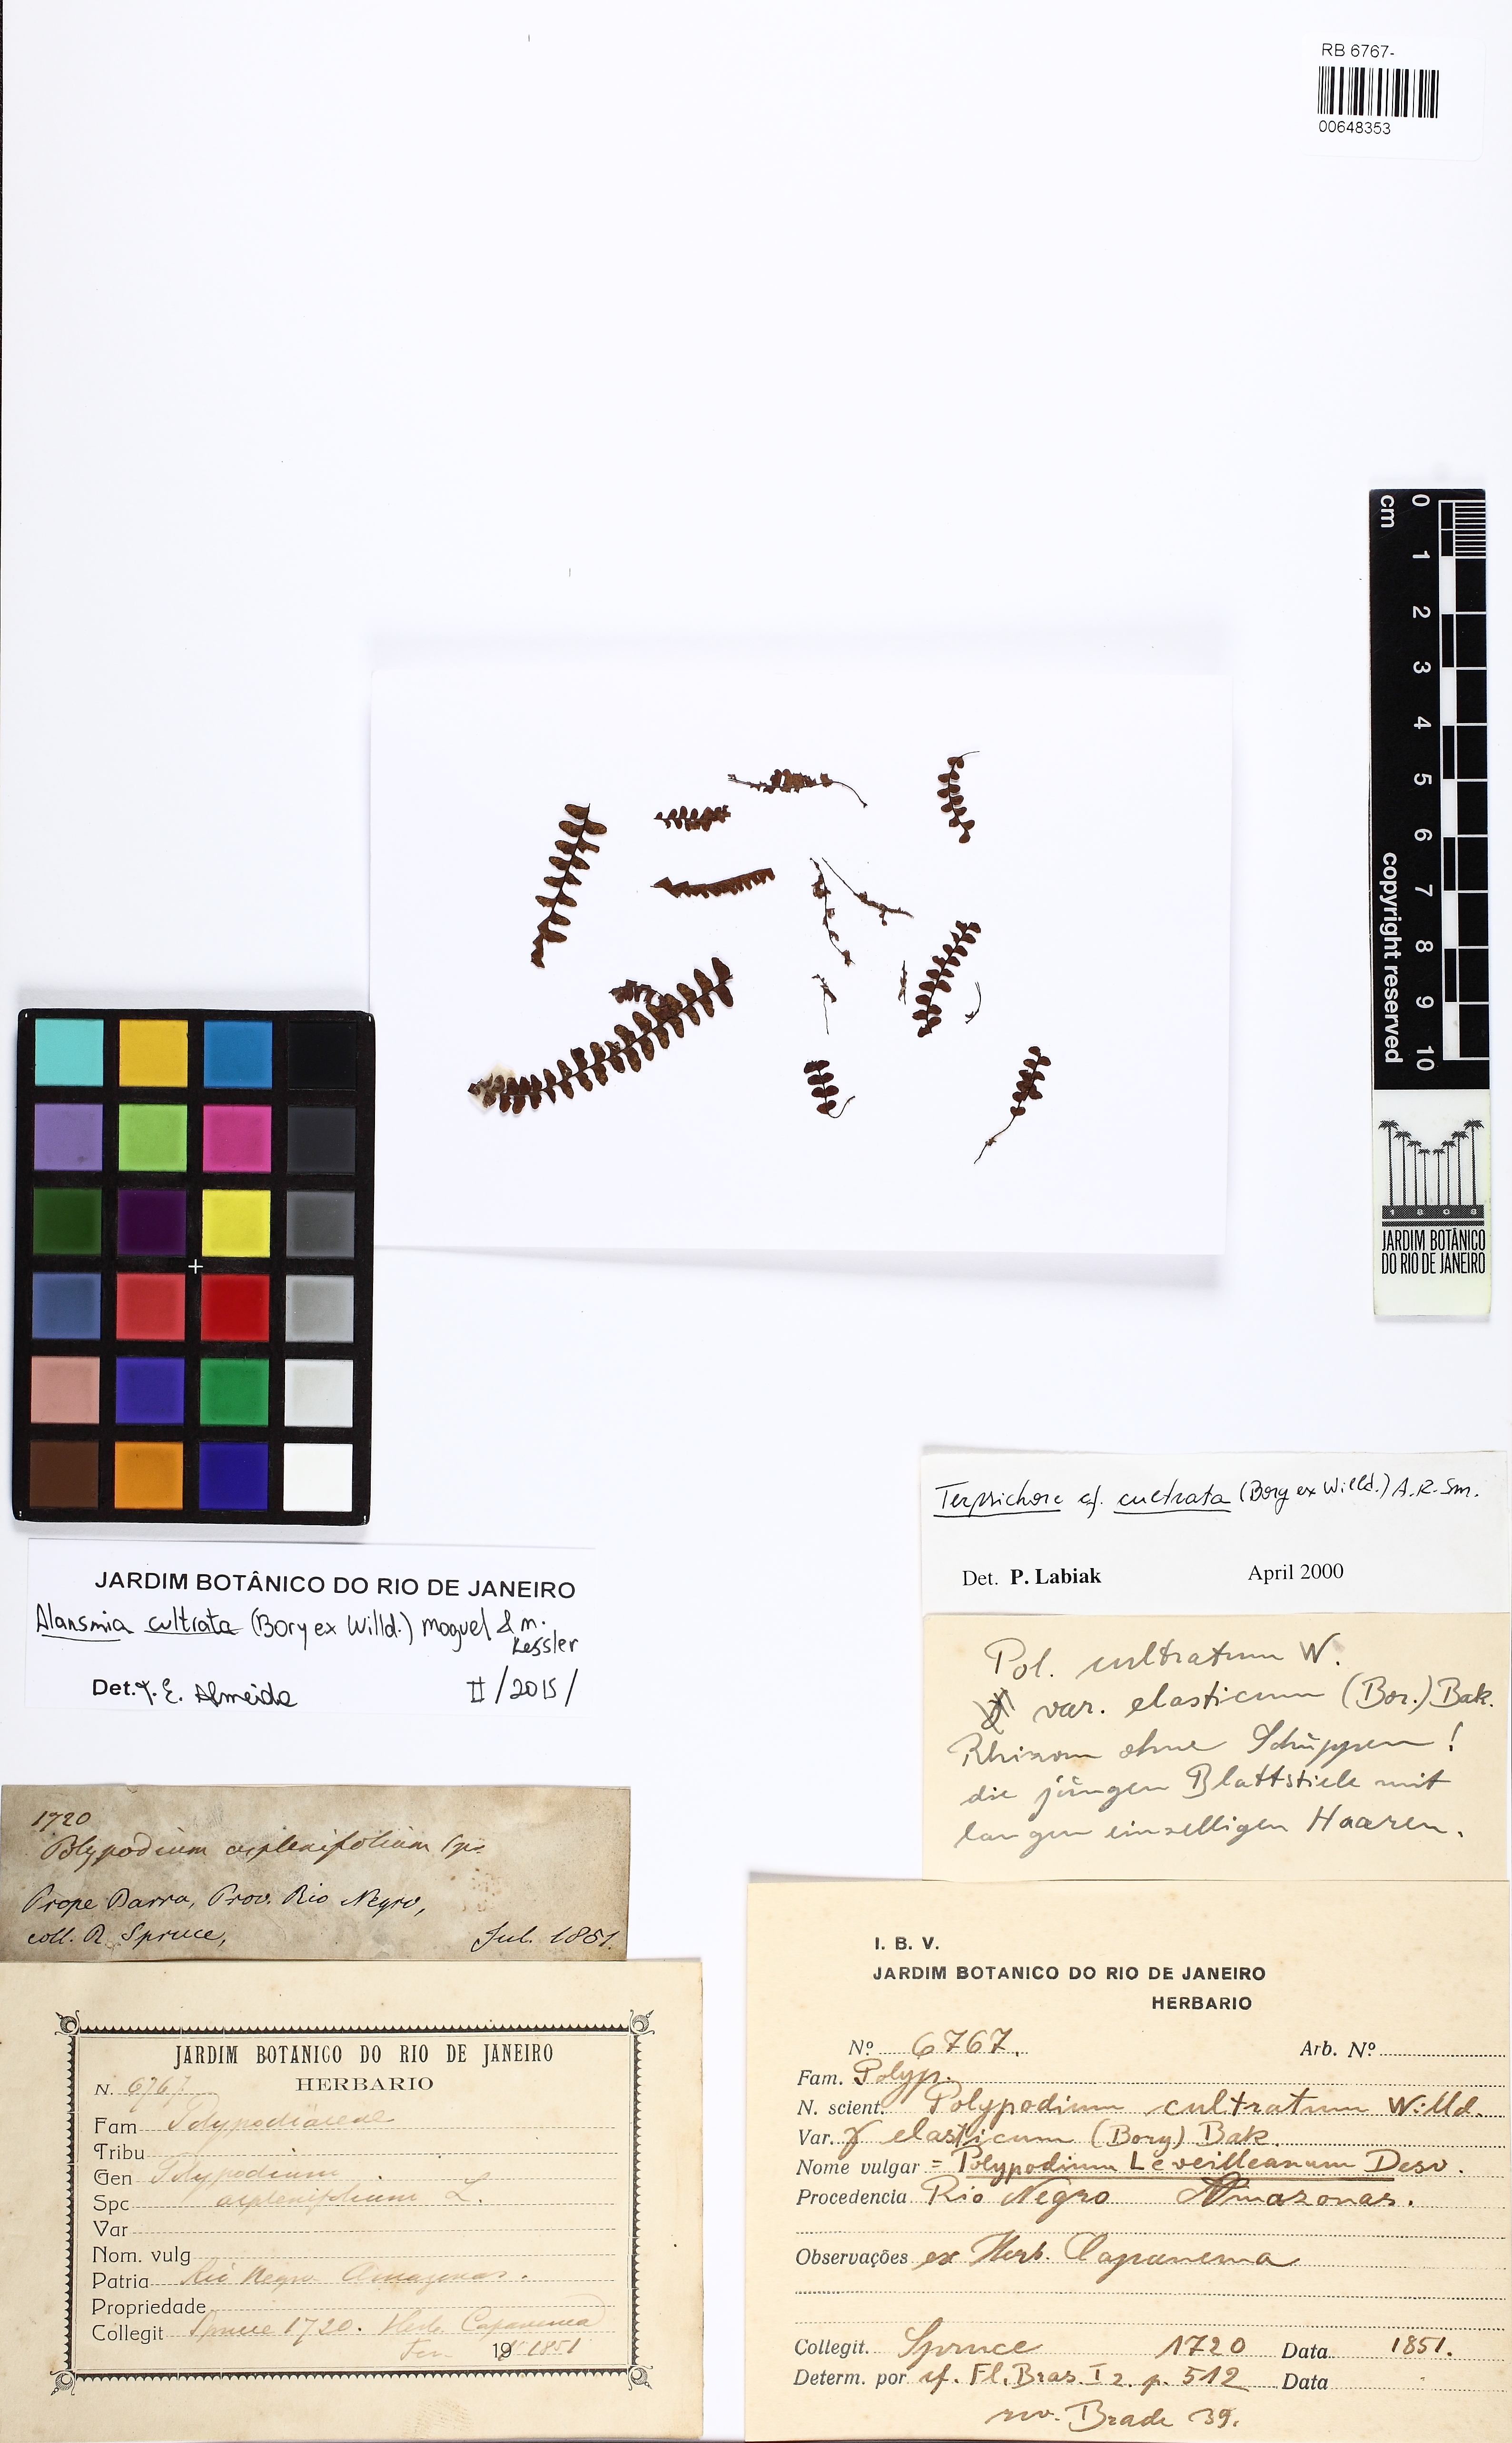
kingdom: Plantae
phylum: Tracheophyta
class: Polypodiopsida
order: Polypodiales
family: Polypodiaceae
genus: Alansmia
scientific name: Alansmia cultrata
